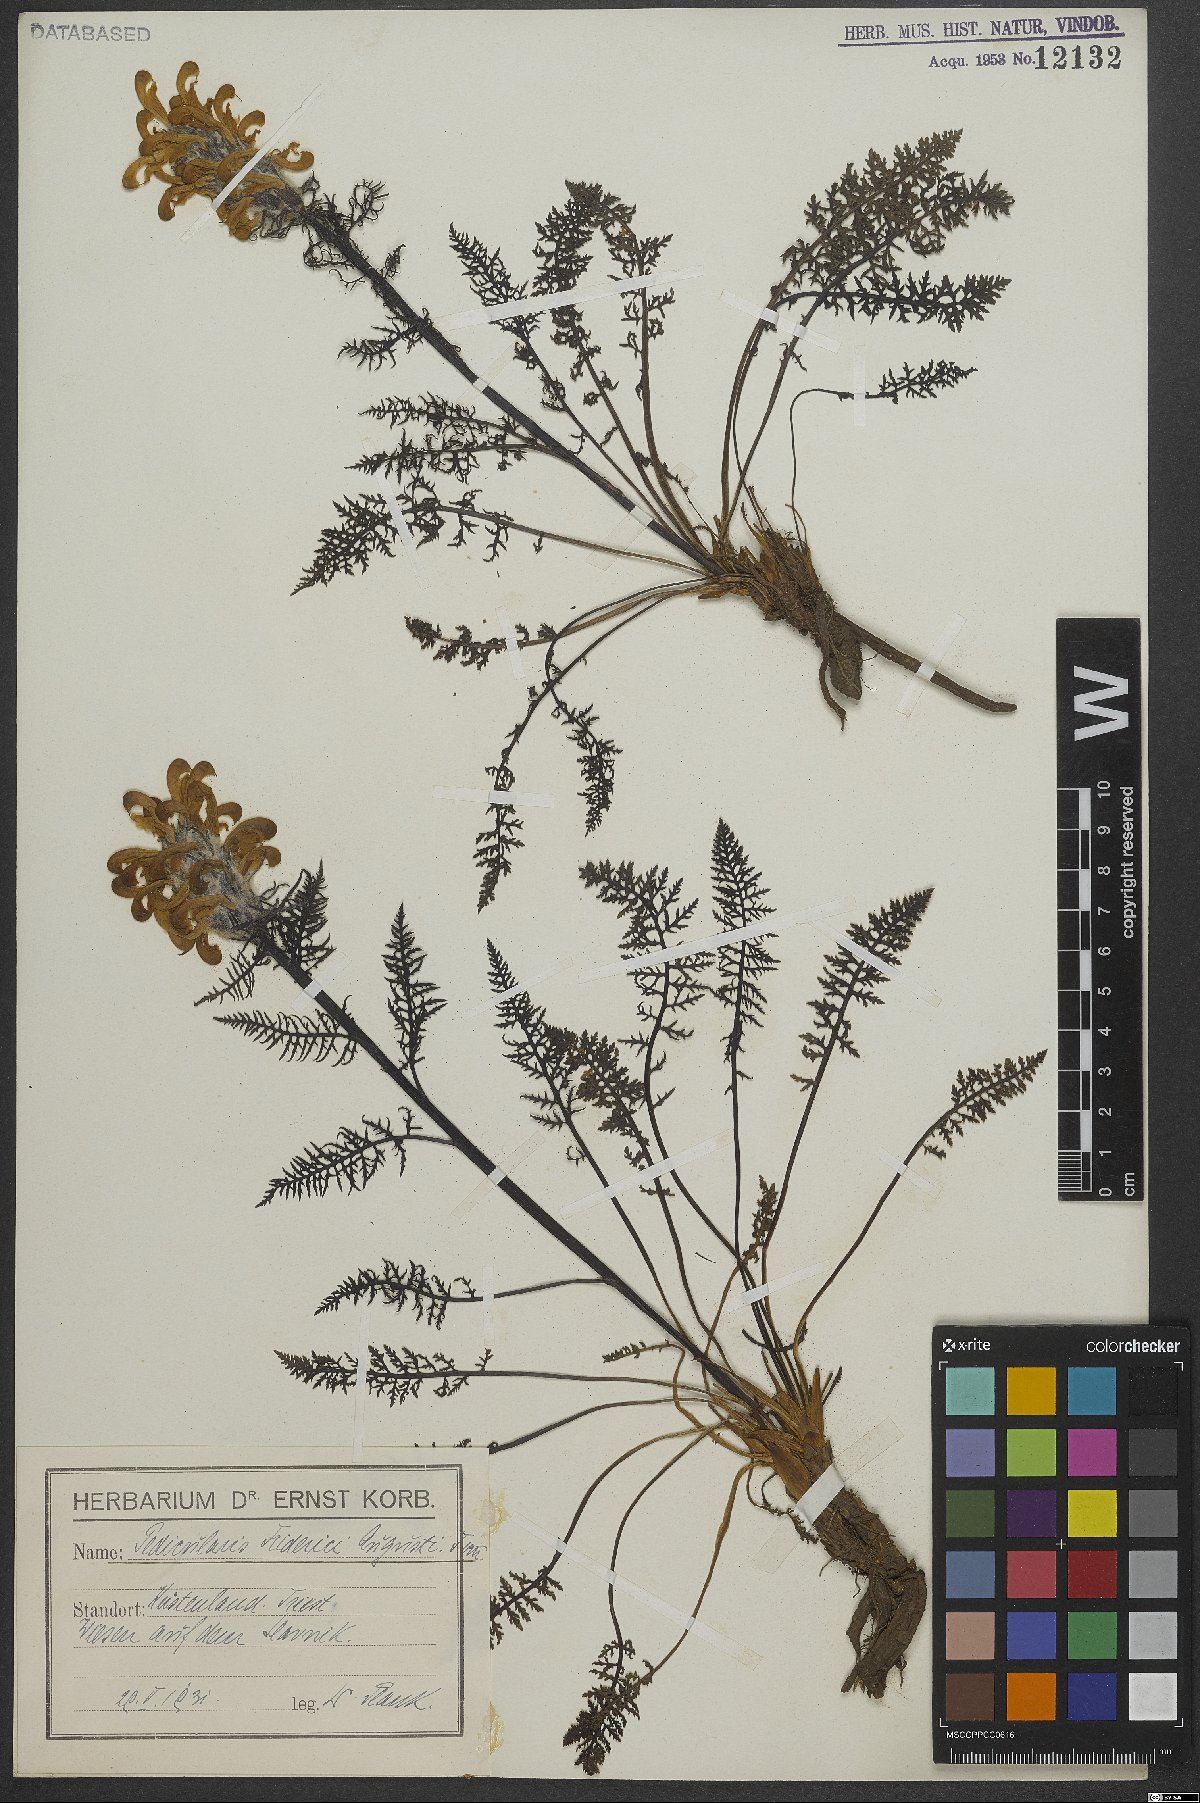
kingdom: Plantae
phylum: Tracheophyta
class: Magnoliopsida
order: Lamiales
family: Orobanchaceae
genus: Pedicularis
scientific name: Pedicularis friderici-augusti
